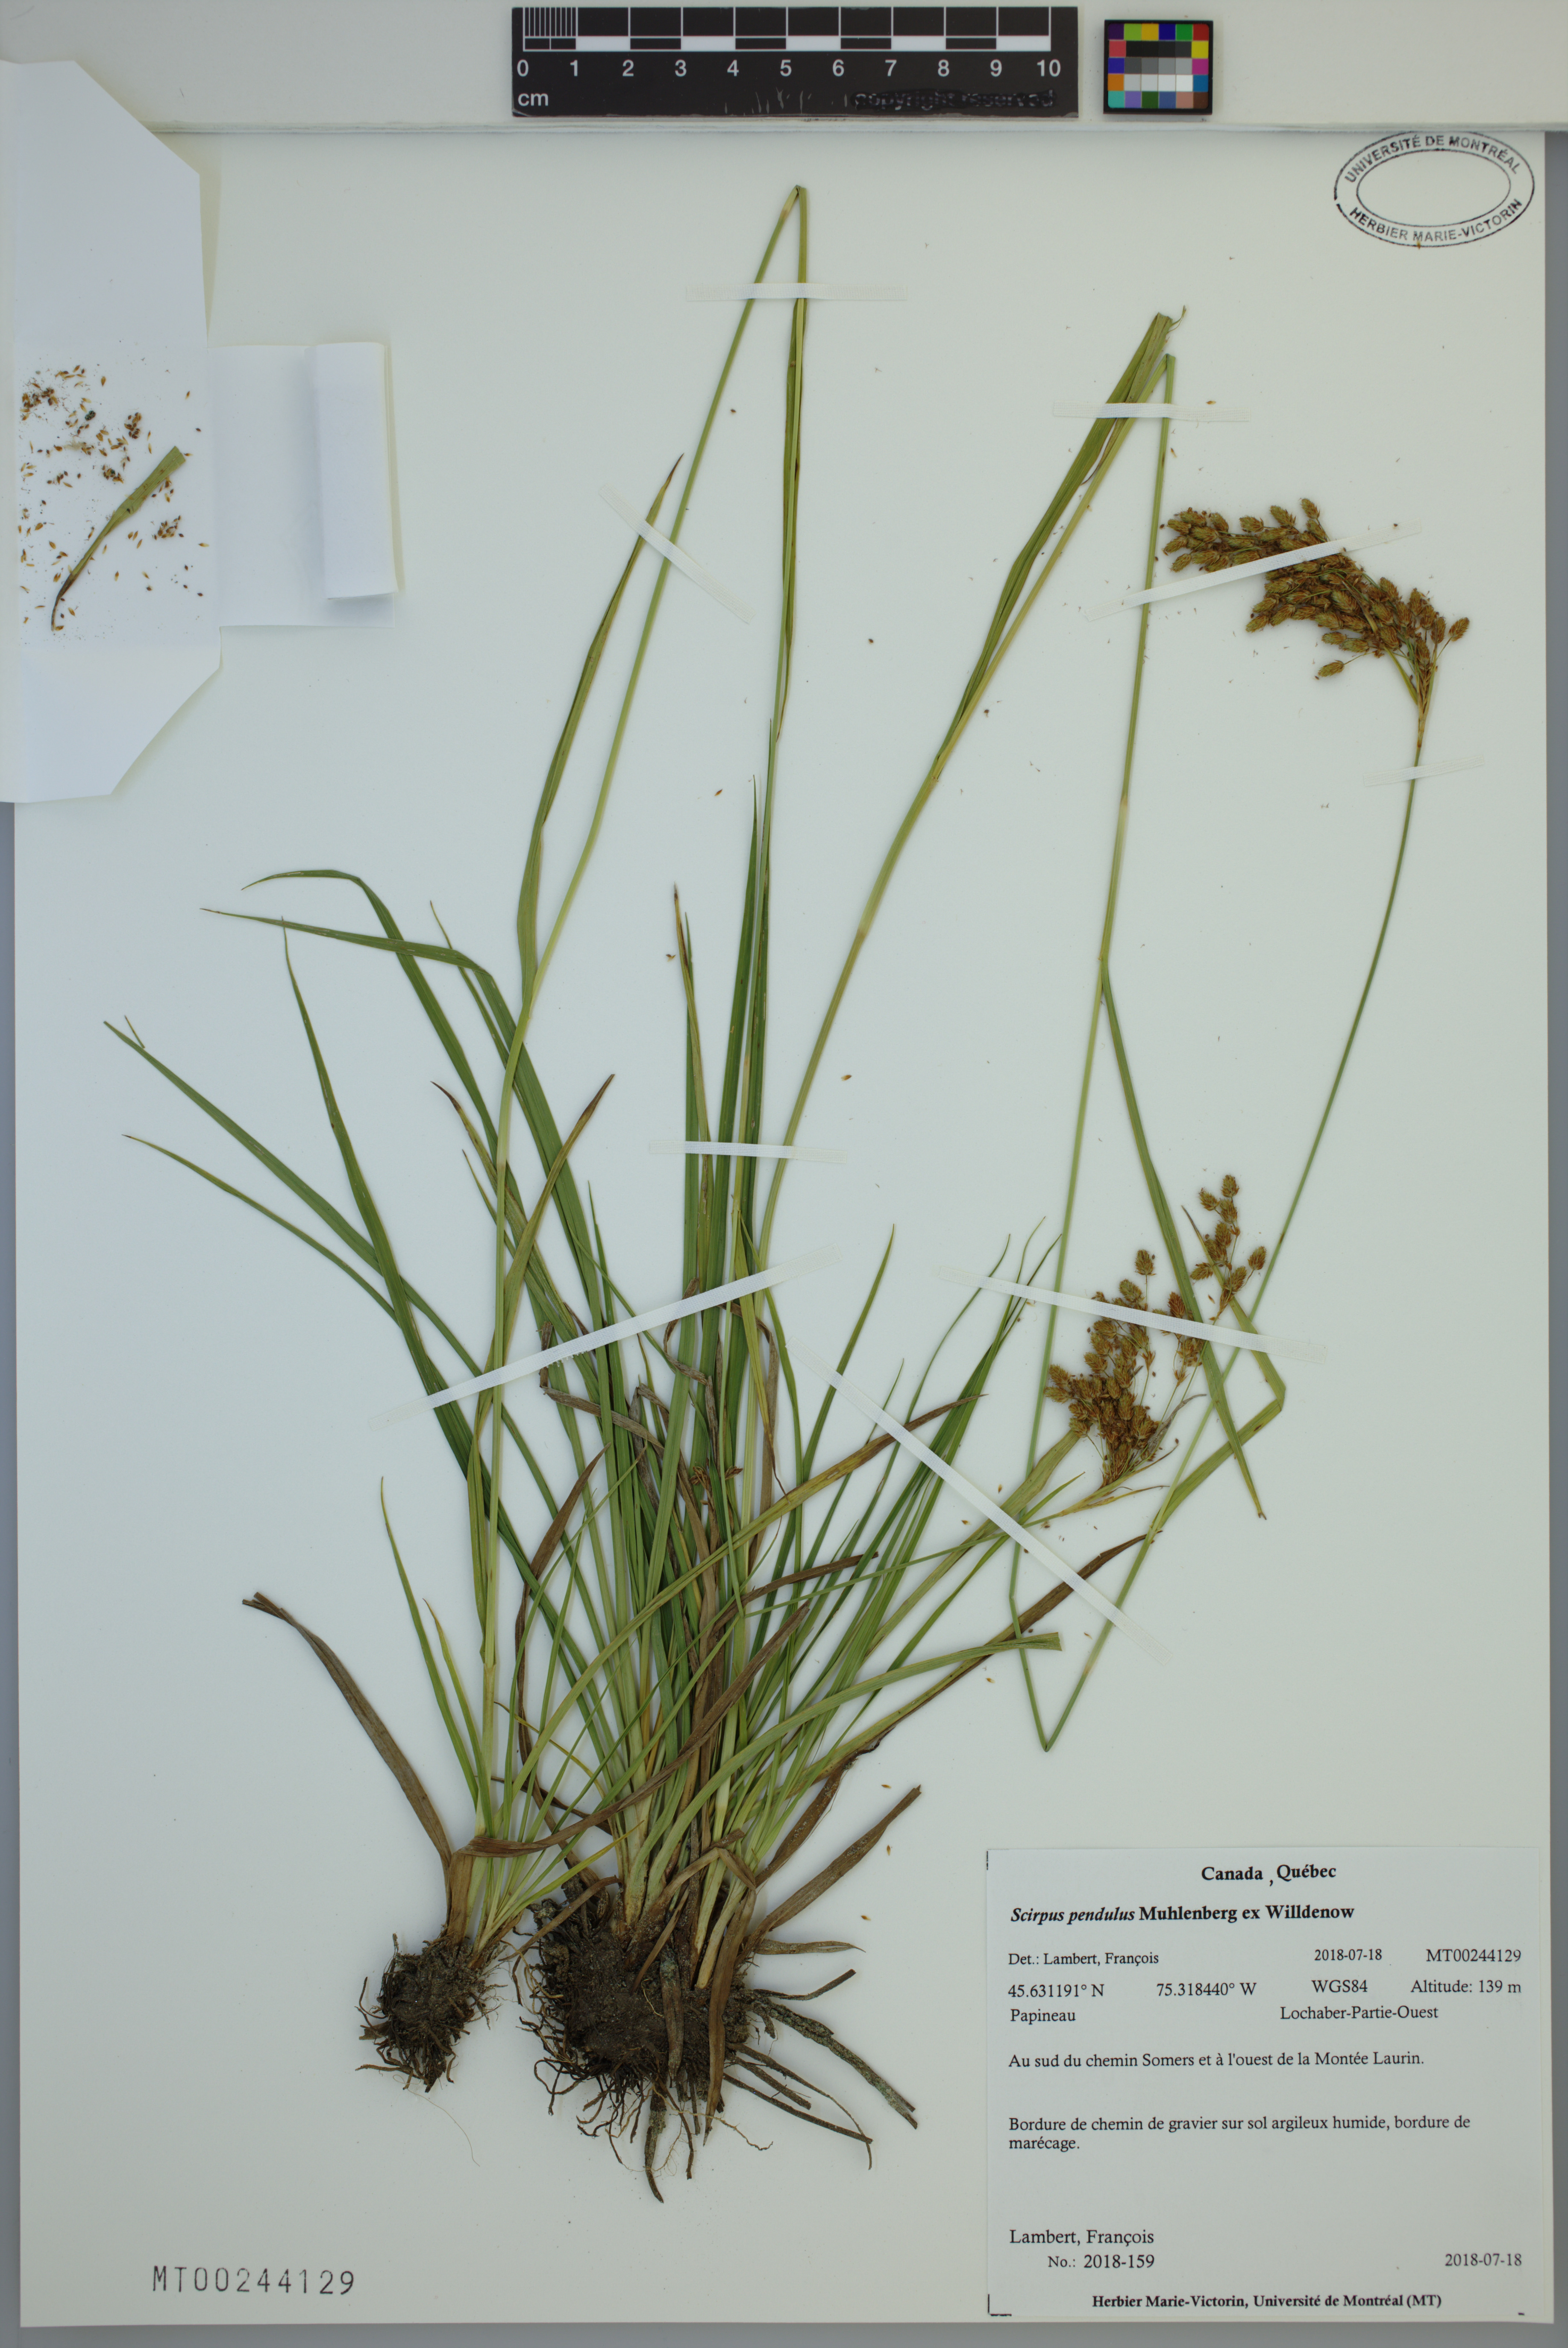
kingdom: Plantae
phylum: Tracheophyta
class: Liliopsida
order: Poales
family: Cyperaceae
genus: Scirpus
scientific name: Scirpus pendulus
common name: Nodding bulrush
